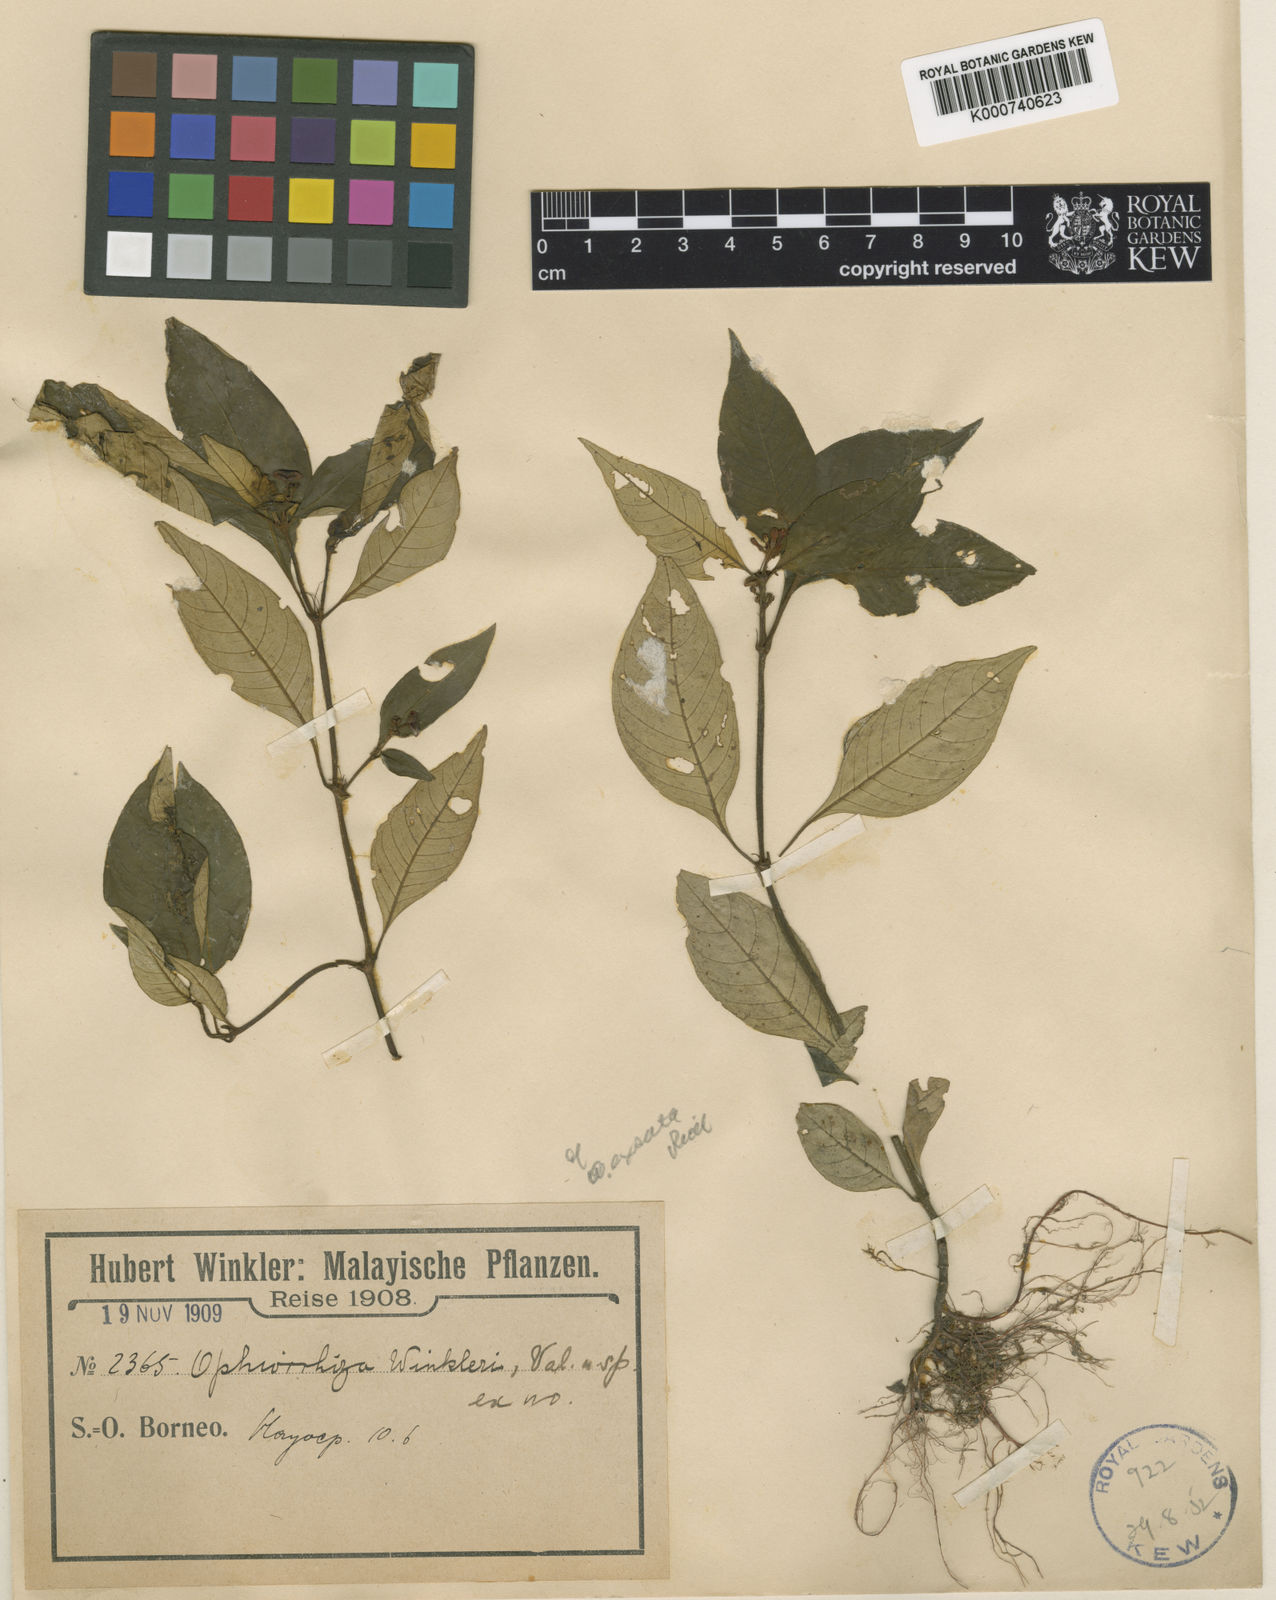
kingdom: Plantae
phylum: Tracheophyta
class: Magnoliopsida
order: Gentianales
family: Rubiaceae
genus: Ophiorrhiza
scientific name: Ophiorrhiza winkleri
